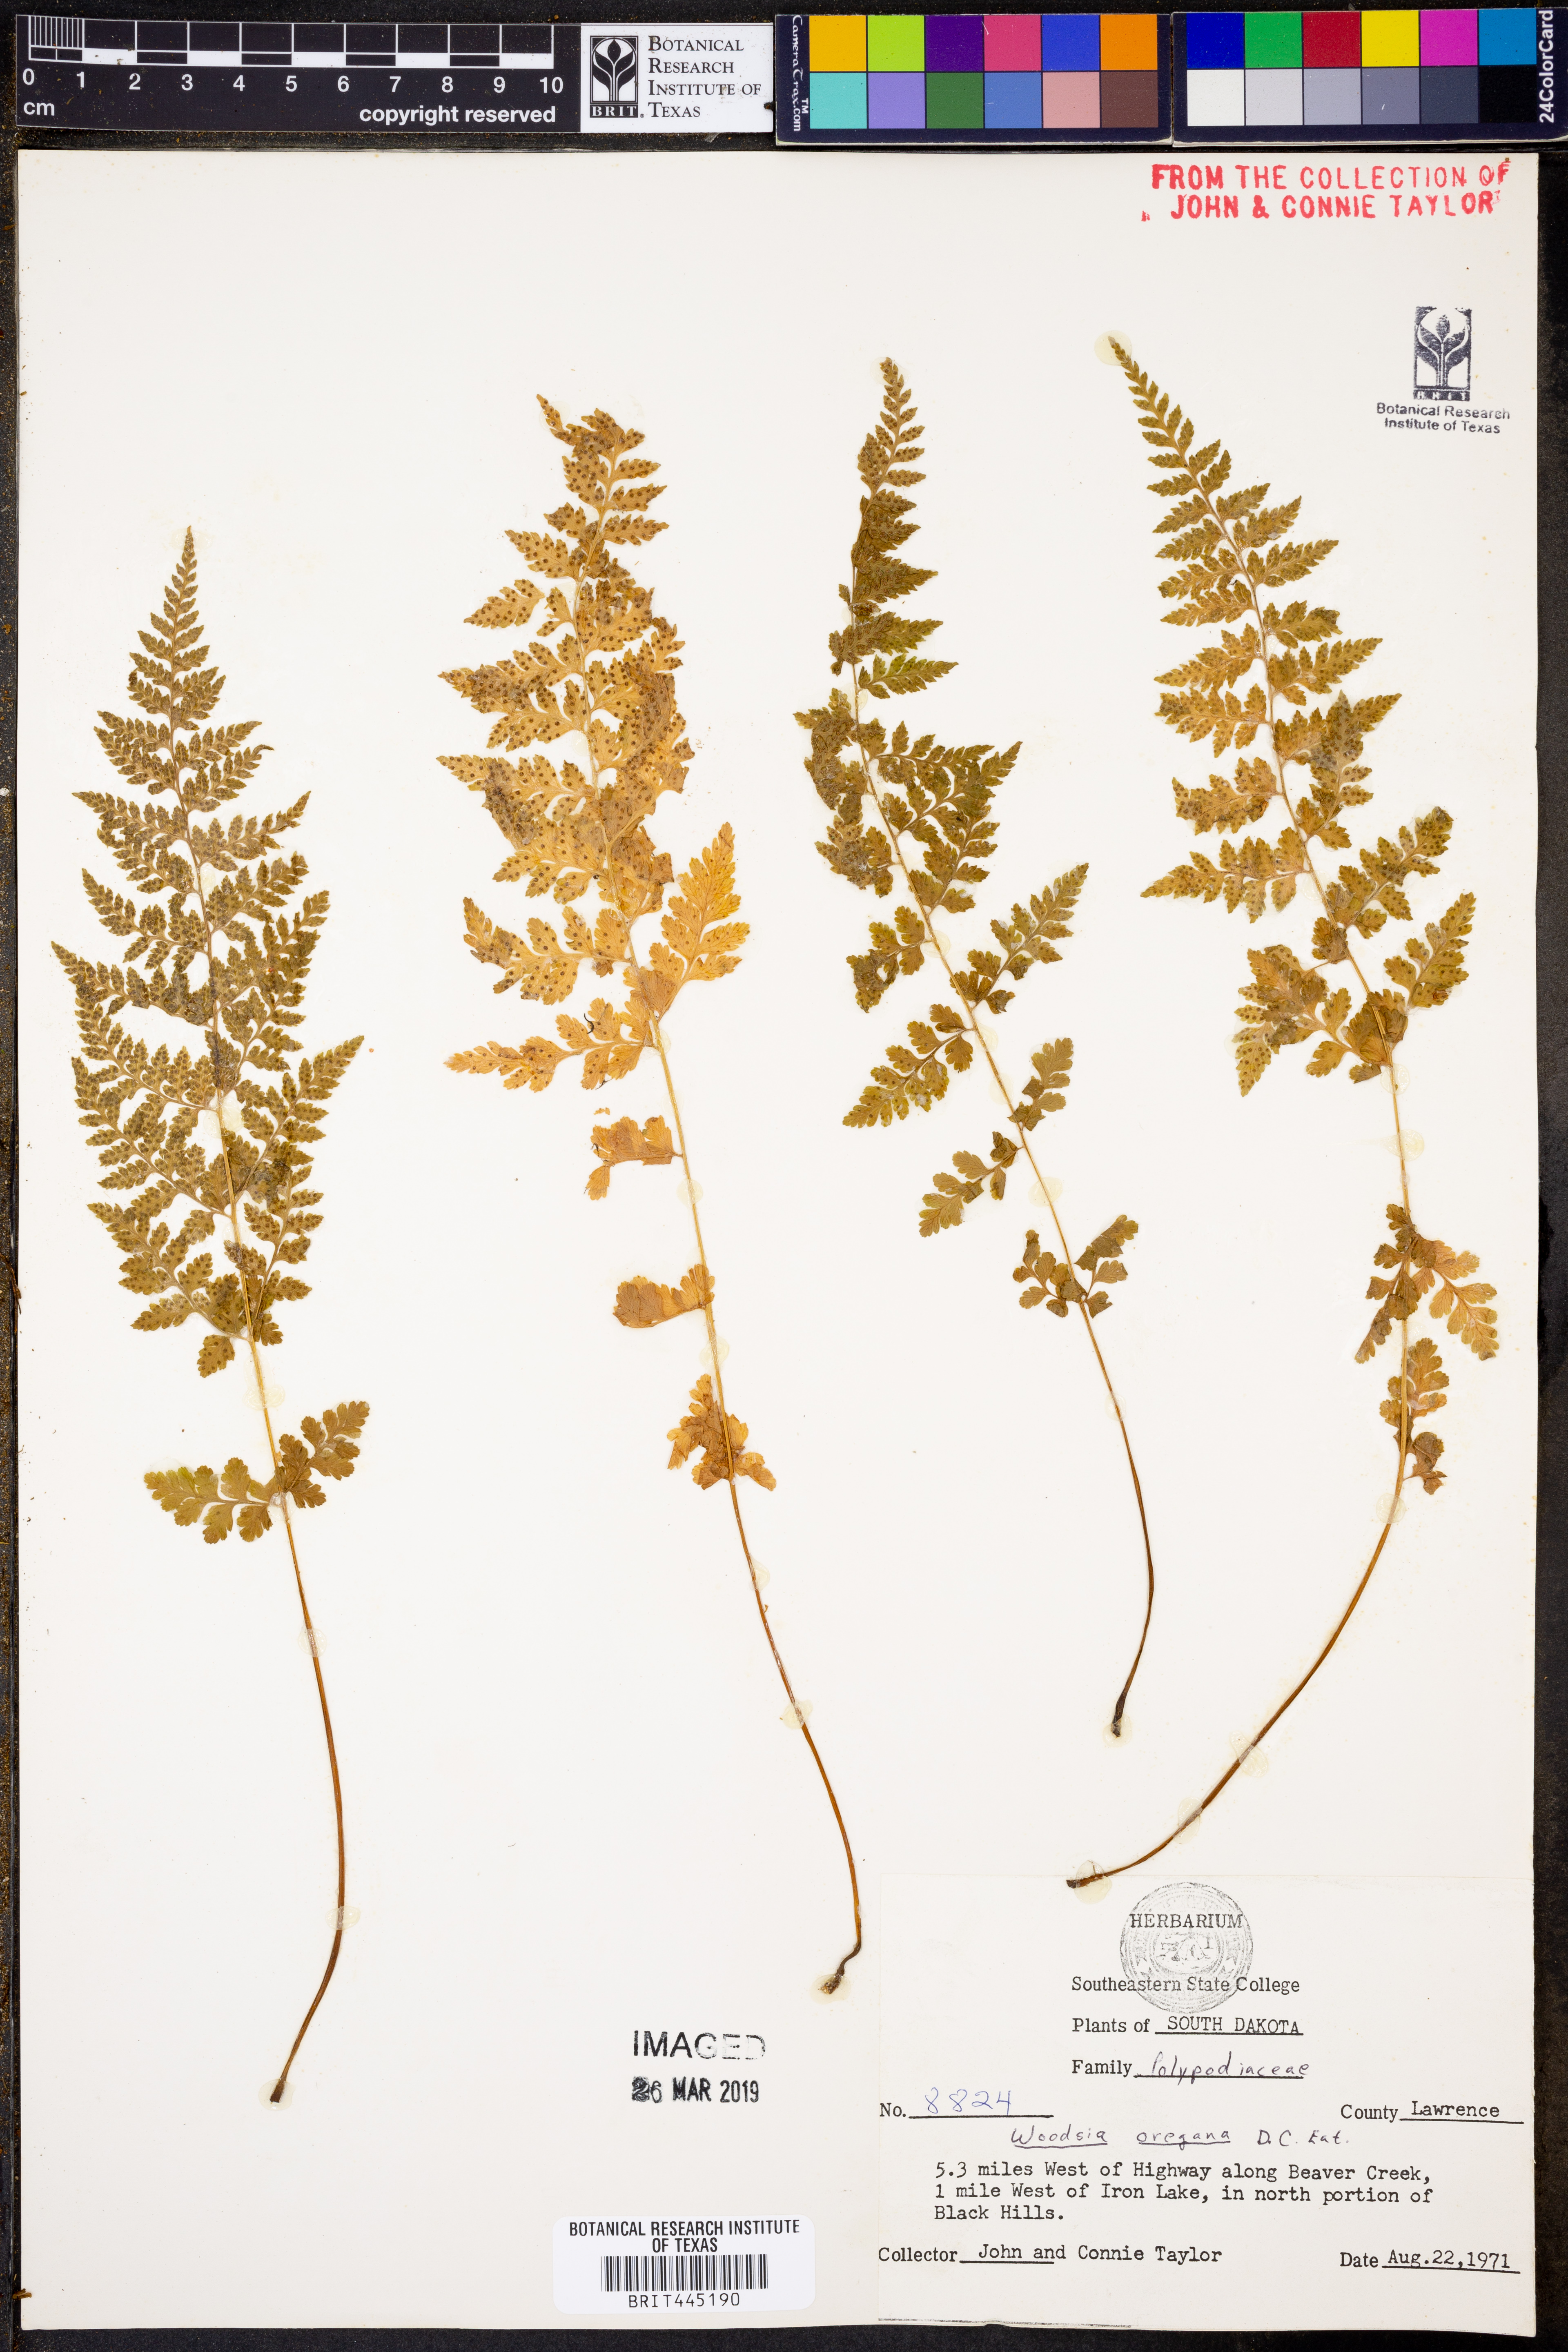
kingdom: Plantae
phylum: Tracheophyta
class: Polypodiopsida
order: Polypodiales
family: Woodsiaceae
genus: Physematium
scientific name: Physematium oreganum
